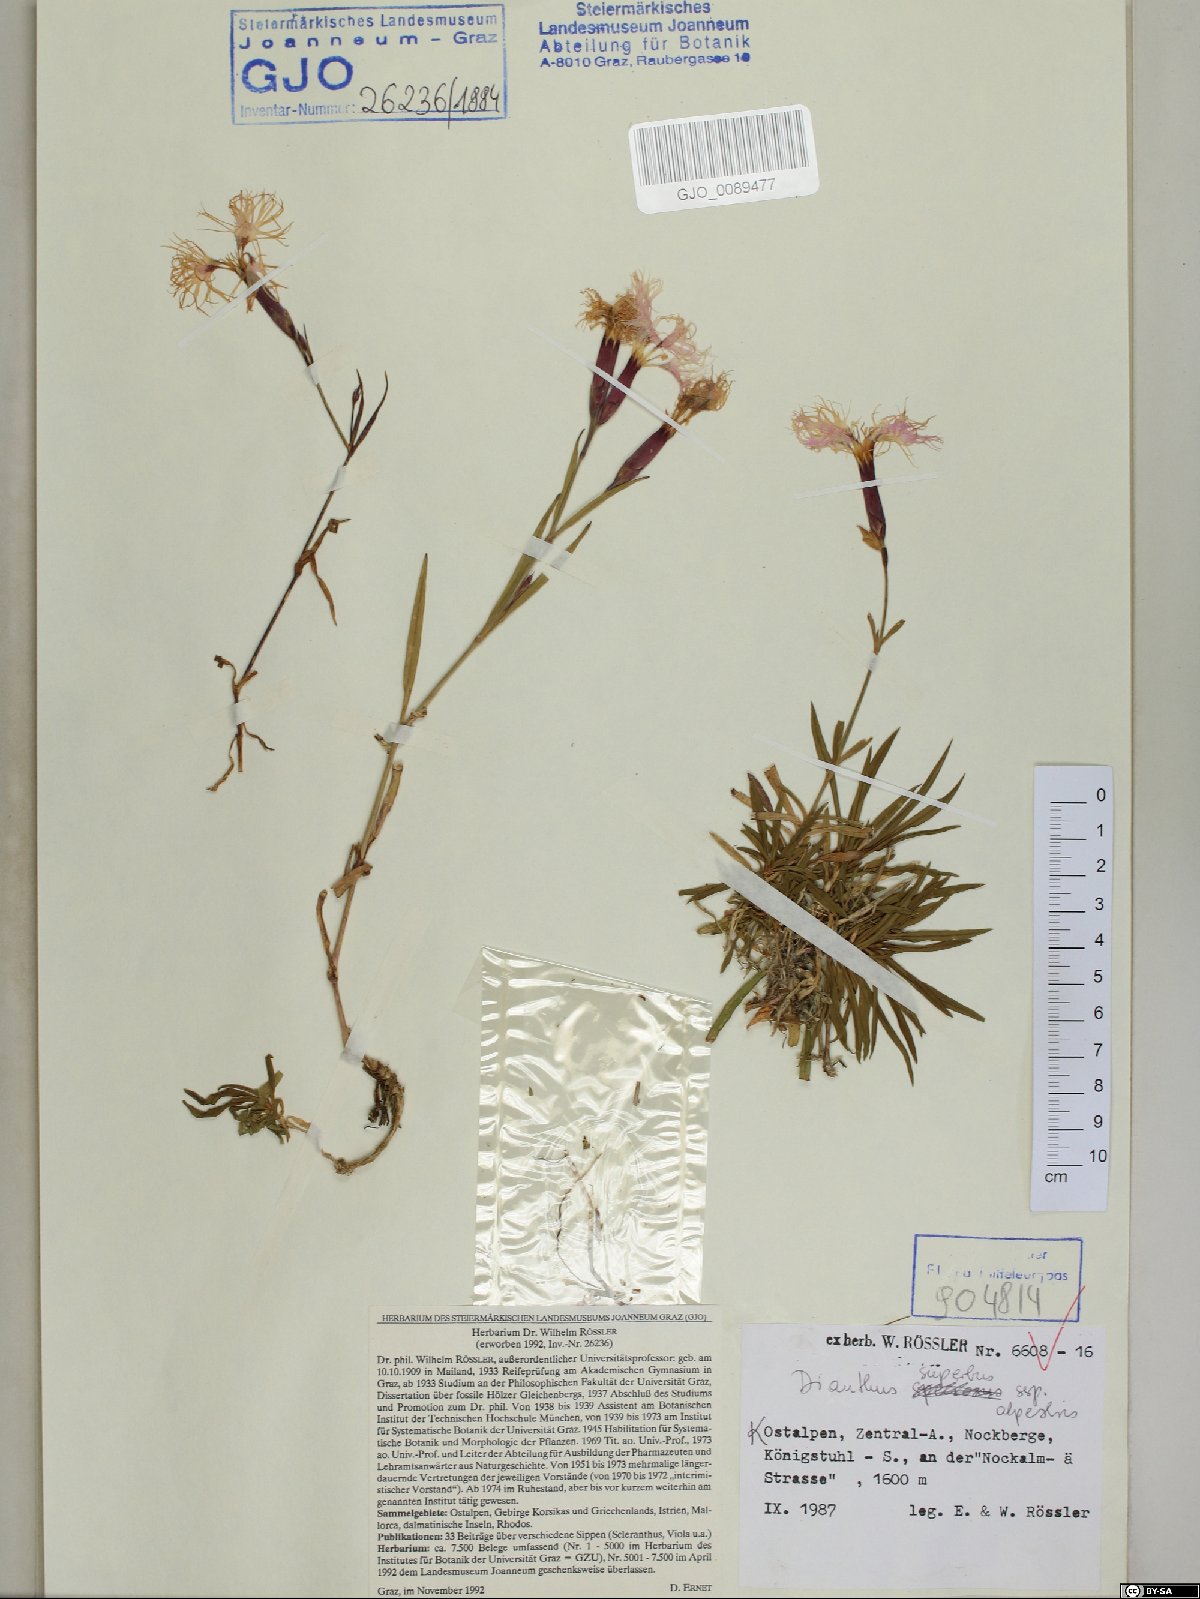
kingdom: Plantae
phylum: Tracheophyta
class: Magnoliopsida
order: Caryophyllales
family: Caryophyllaceae
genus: Dianthus
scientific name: Dianthus superbus
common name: Fringed pink
